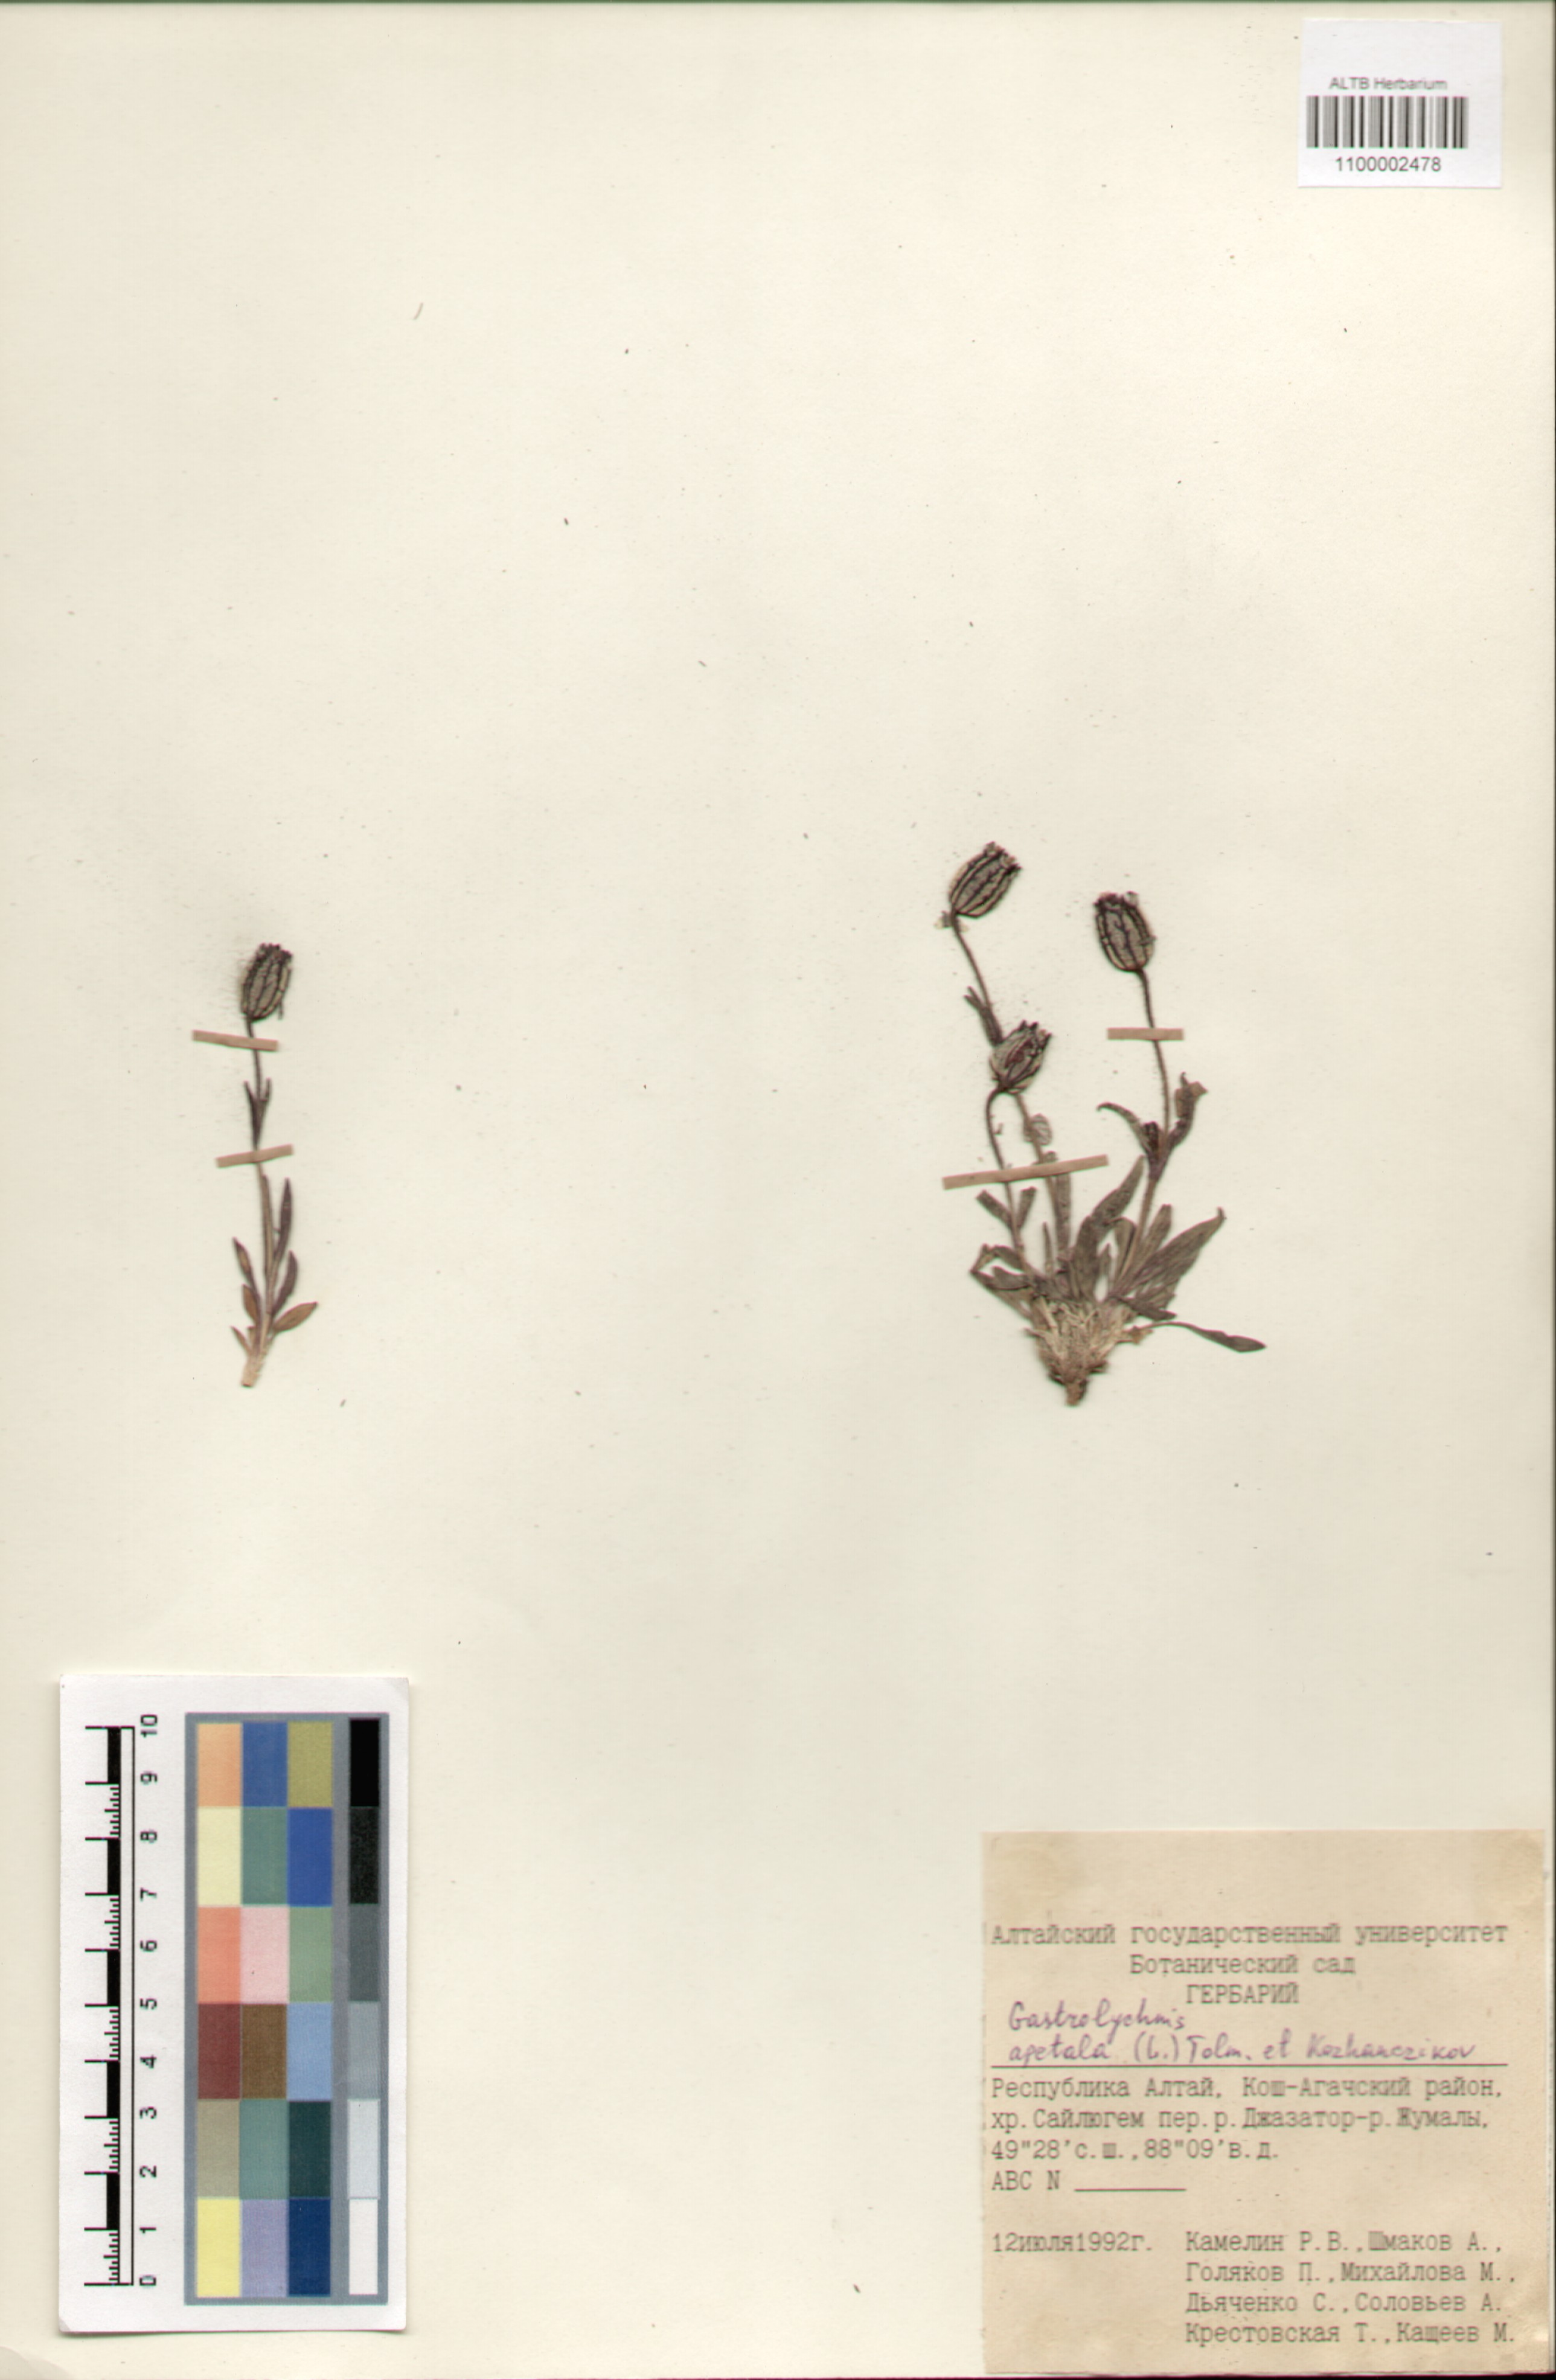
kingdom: Plantae
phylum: Tracheophyta
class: Magnoliopsida
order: Caryophyllales
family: Caryophyllaceae
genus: Silene
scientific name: Silene wahlbergella
